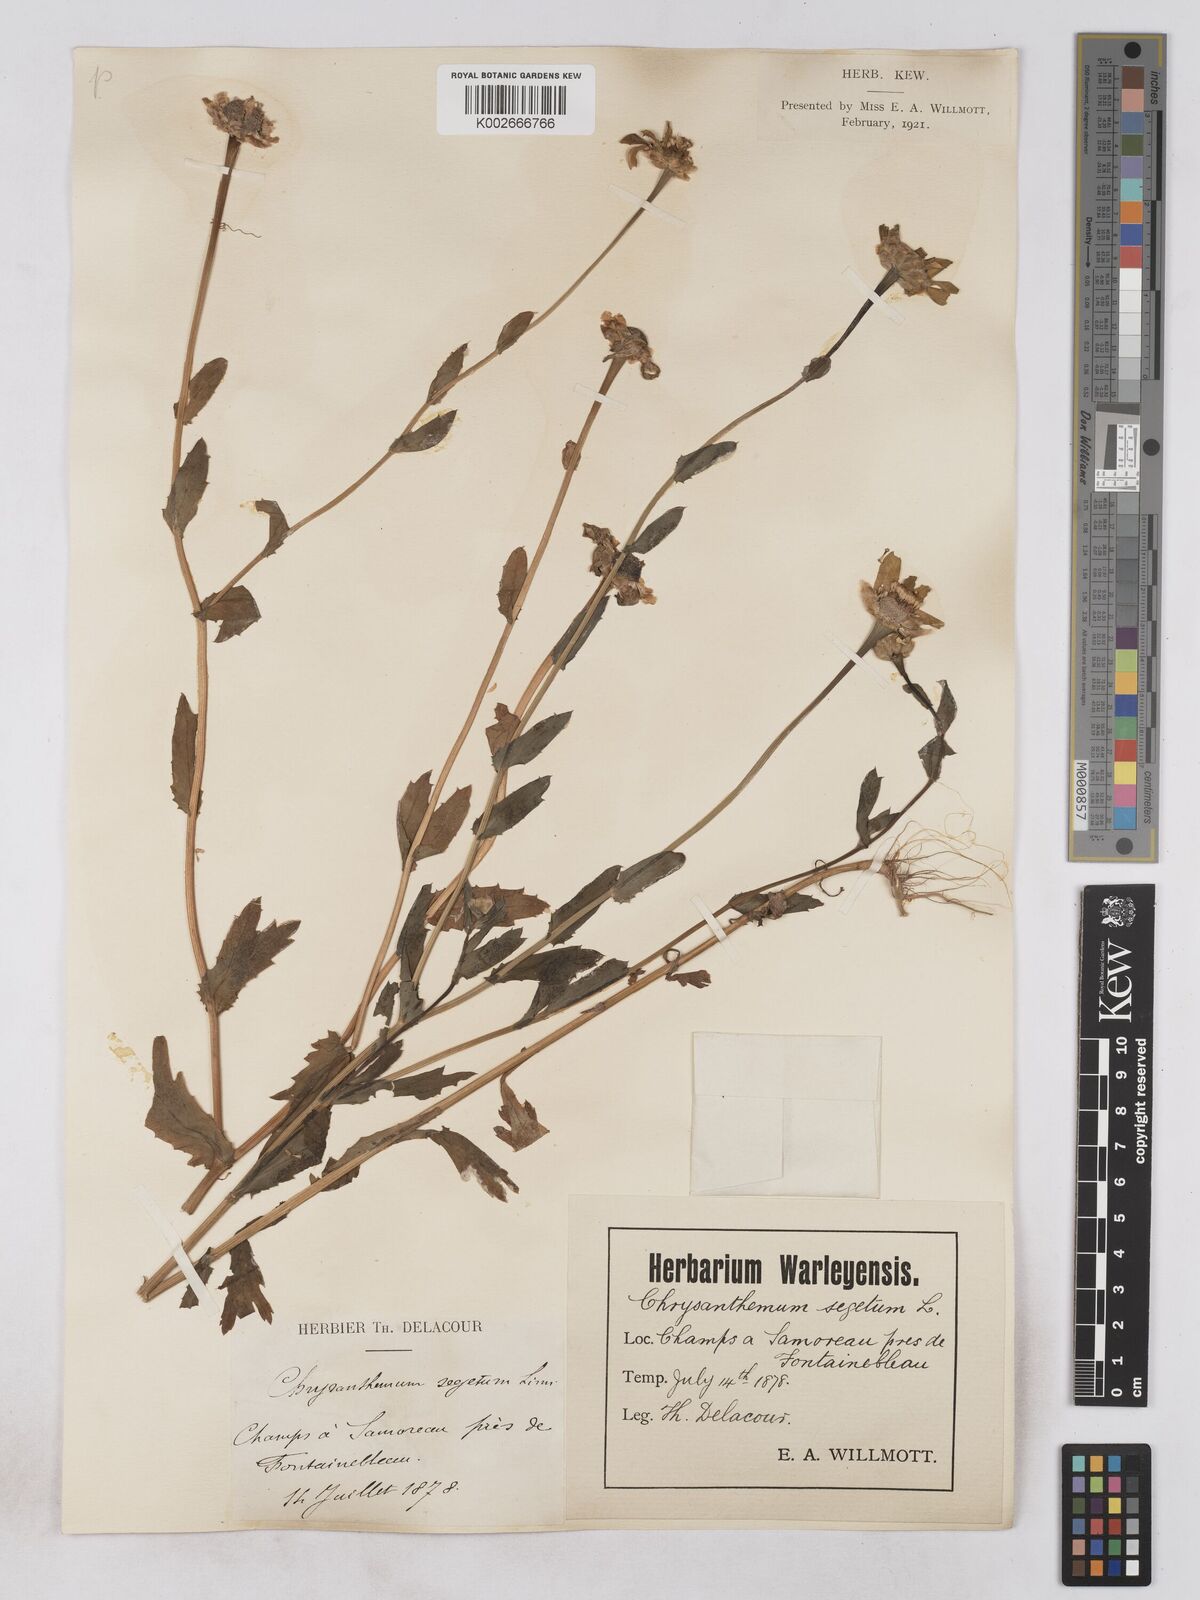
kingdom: Plantae
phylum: Tracheophyta
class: Magnoliopsida
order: Asterales
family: Asteraceae
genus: Glebionis
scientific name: Glebionis segetum
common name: Corndaisy
